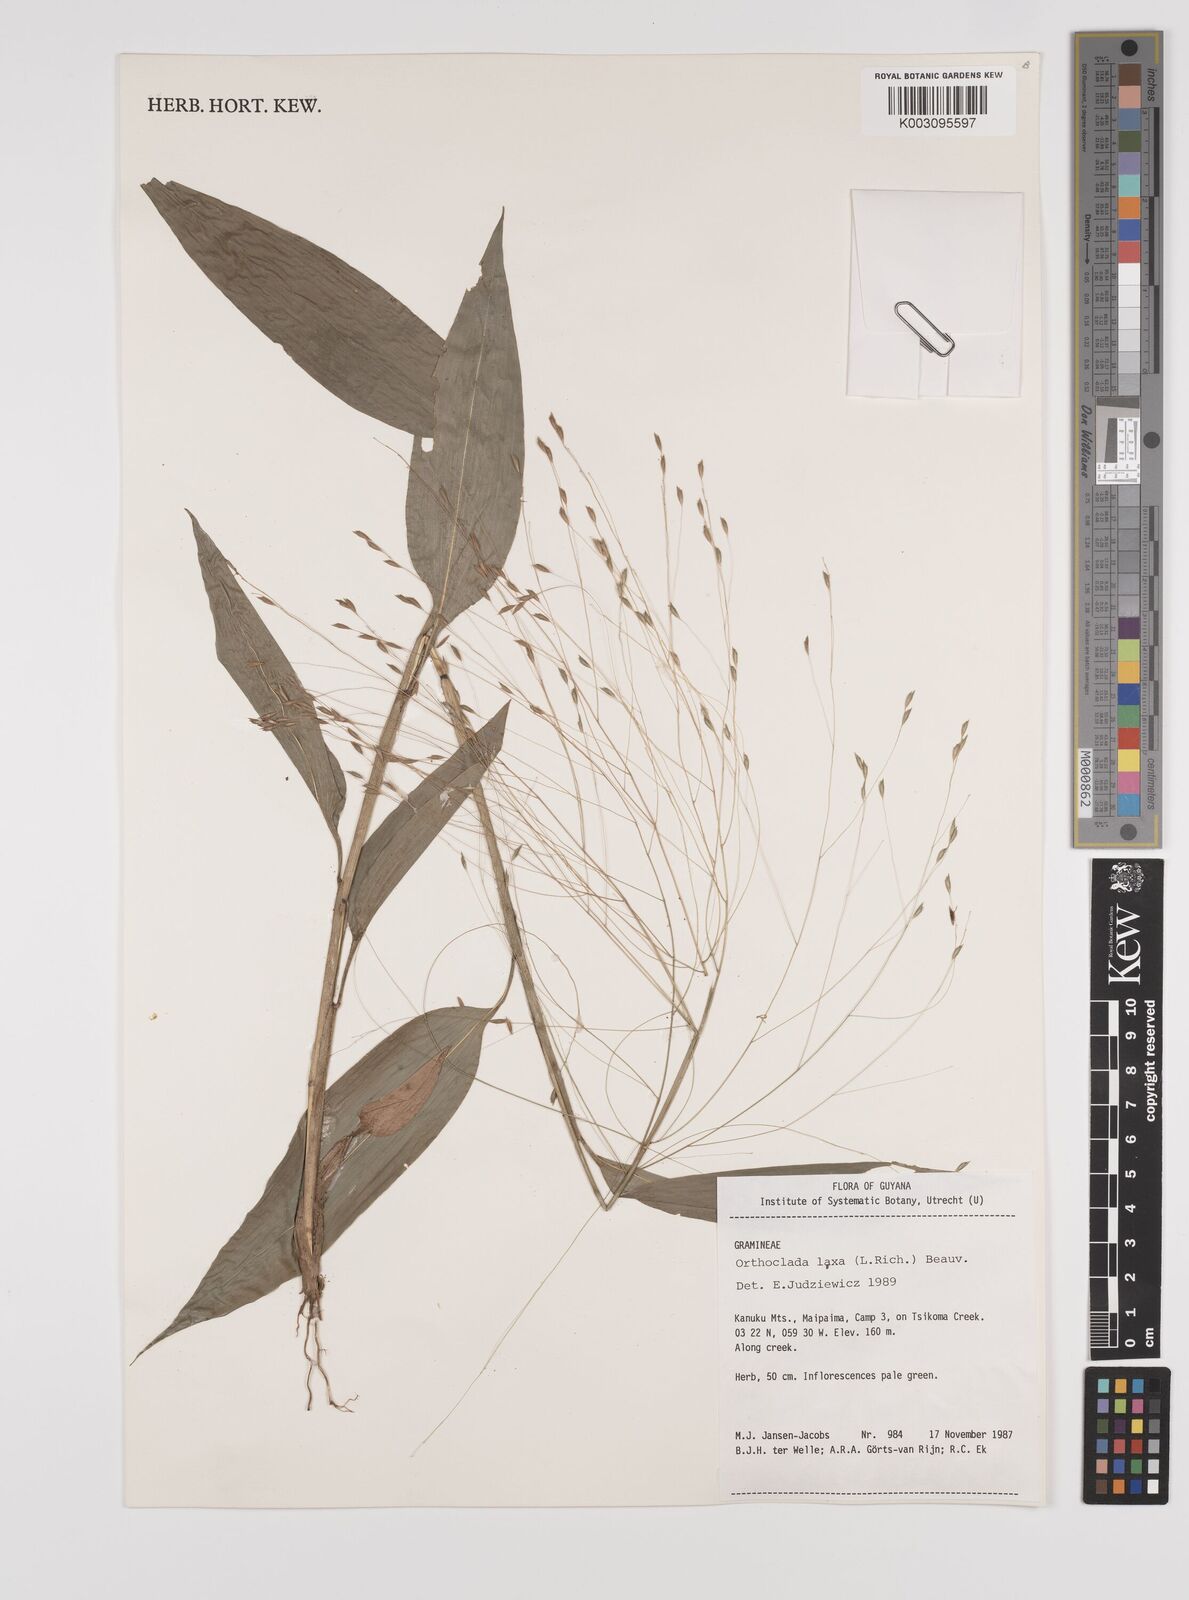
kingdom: Plantae
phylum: Tracheophyta
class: Liliopsida
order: Poales
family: Poaceae
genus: Orthoclada
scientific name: Orthoclada laxa
